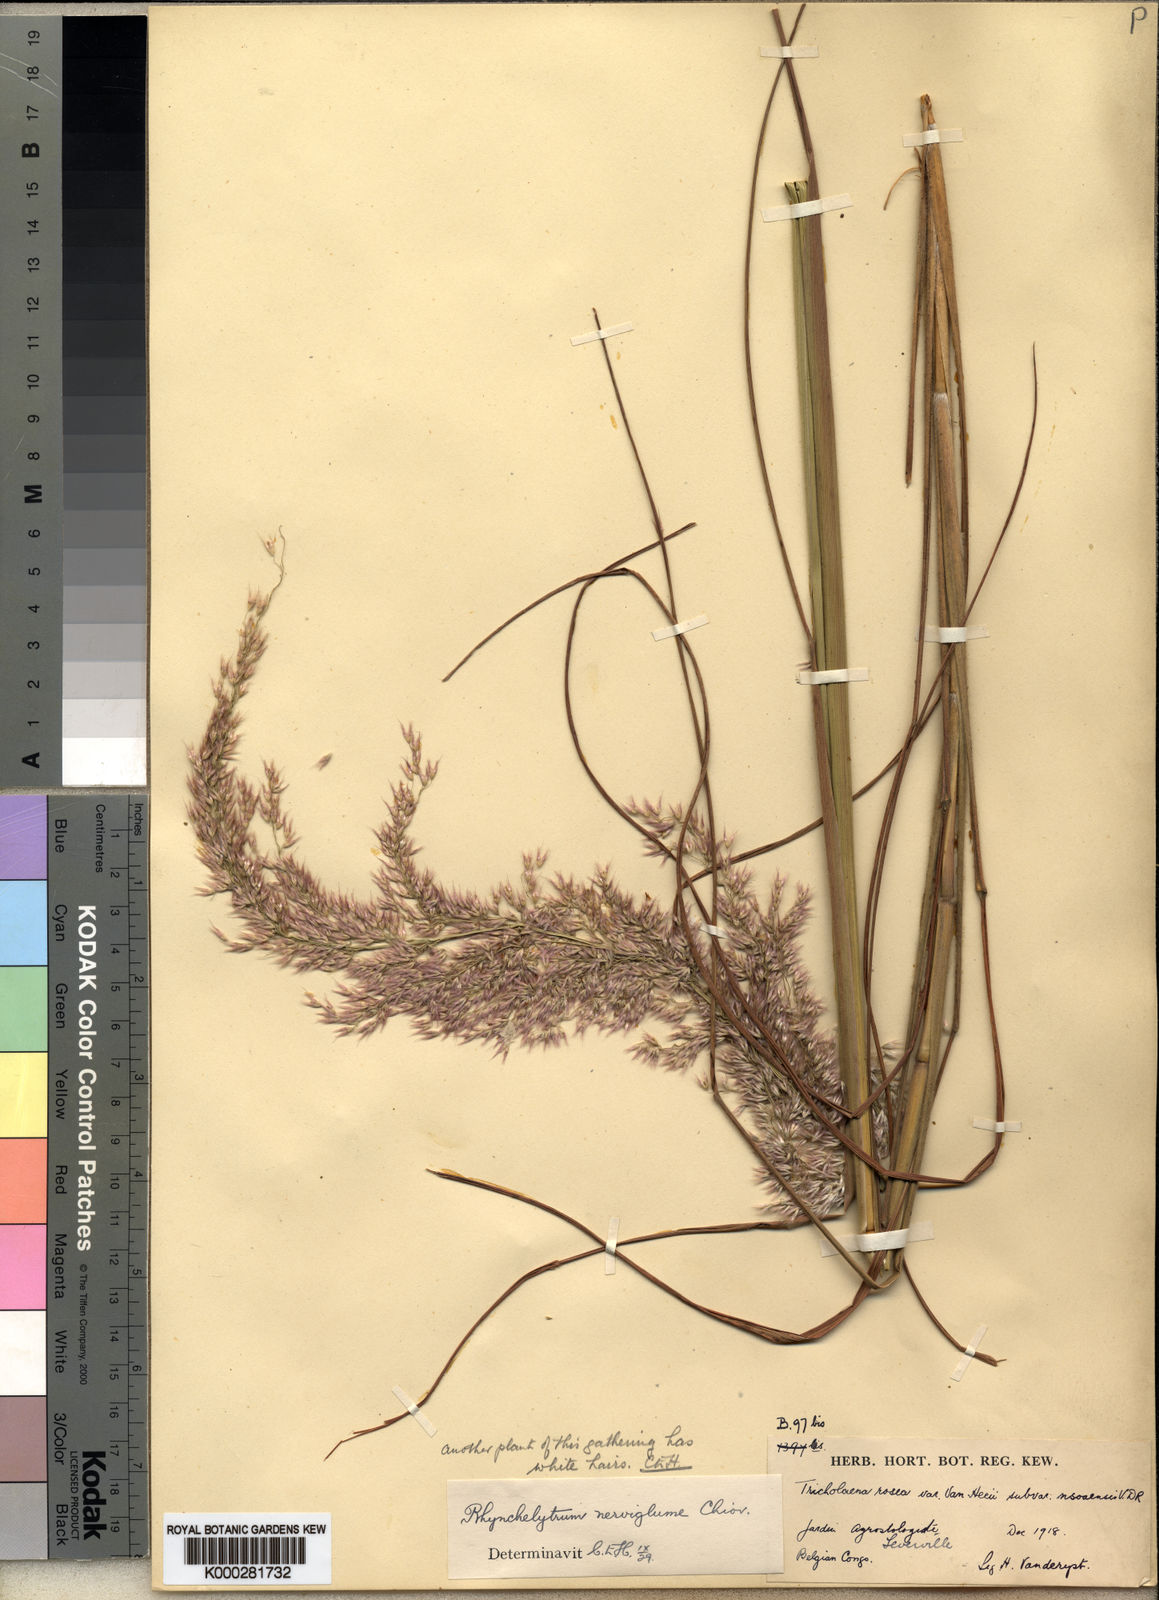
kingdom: Plantae
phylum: Tracheophyta
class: Liliopsida
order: Poales
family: Poaceae
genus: Melinis
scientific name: Melinis nerviglumis
